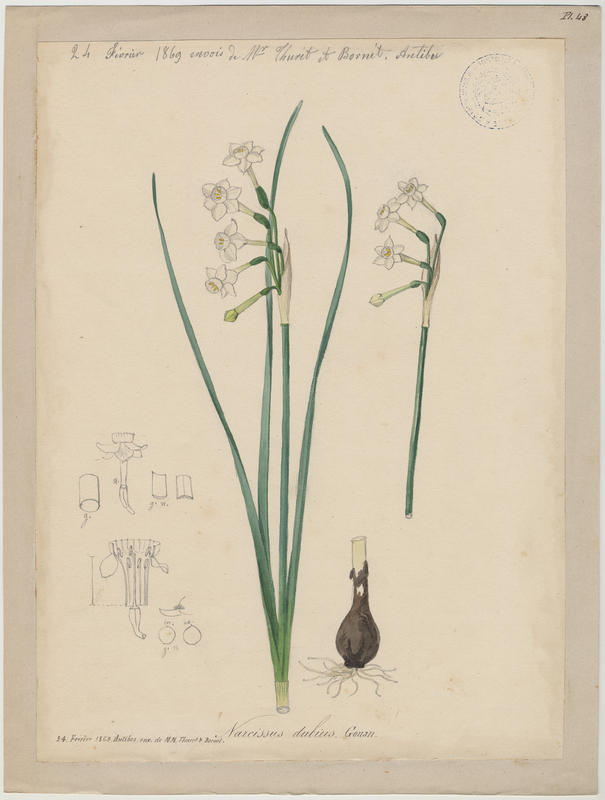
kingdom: Plantae
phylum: Tracheophyta
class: Liliopsida
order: Asparagales
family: Amaryllidaceae
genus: Narcissus
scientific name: Narcissus dubius
